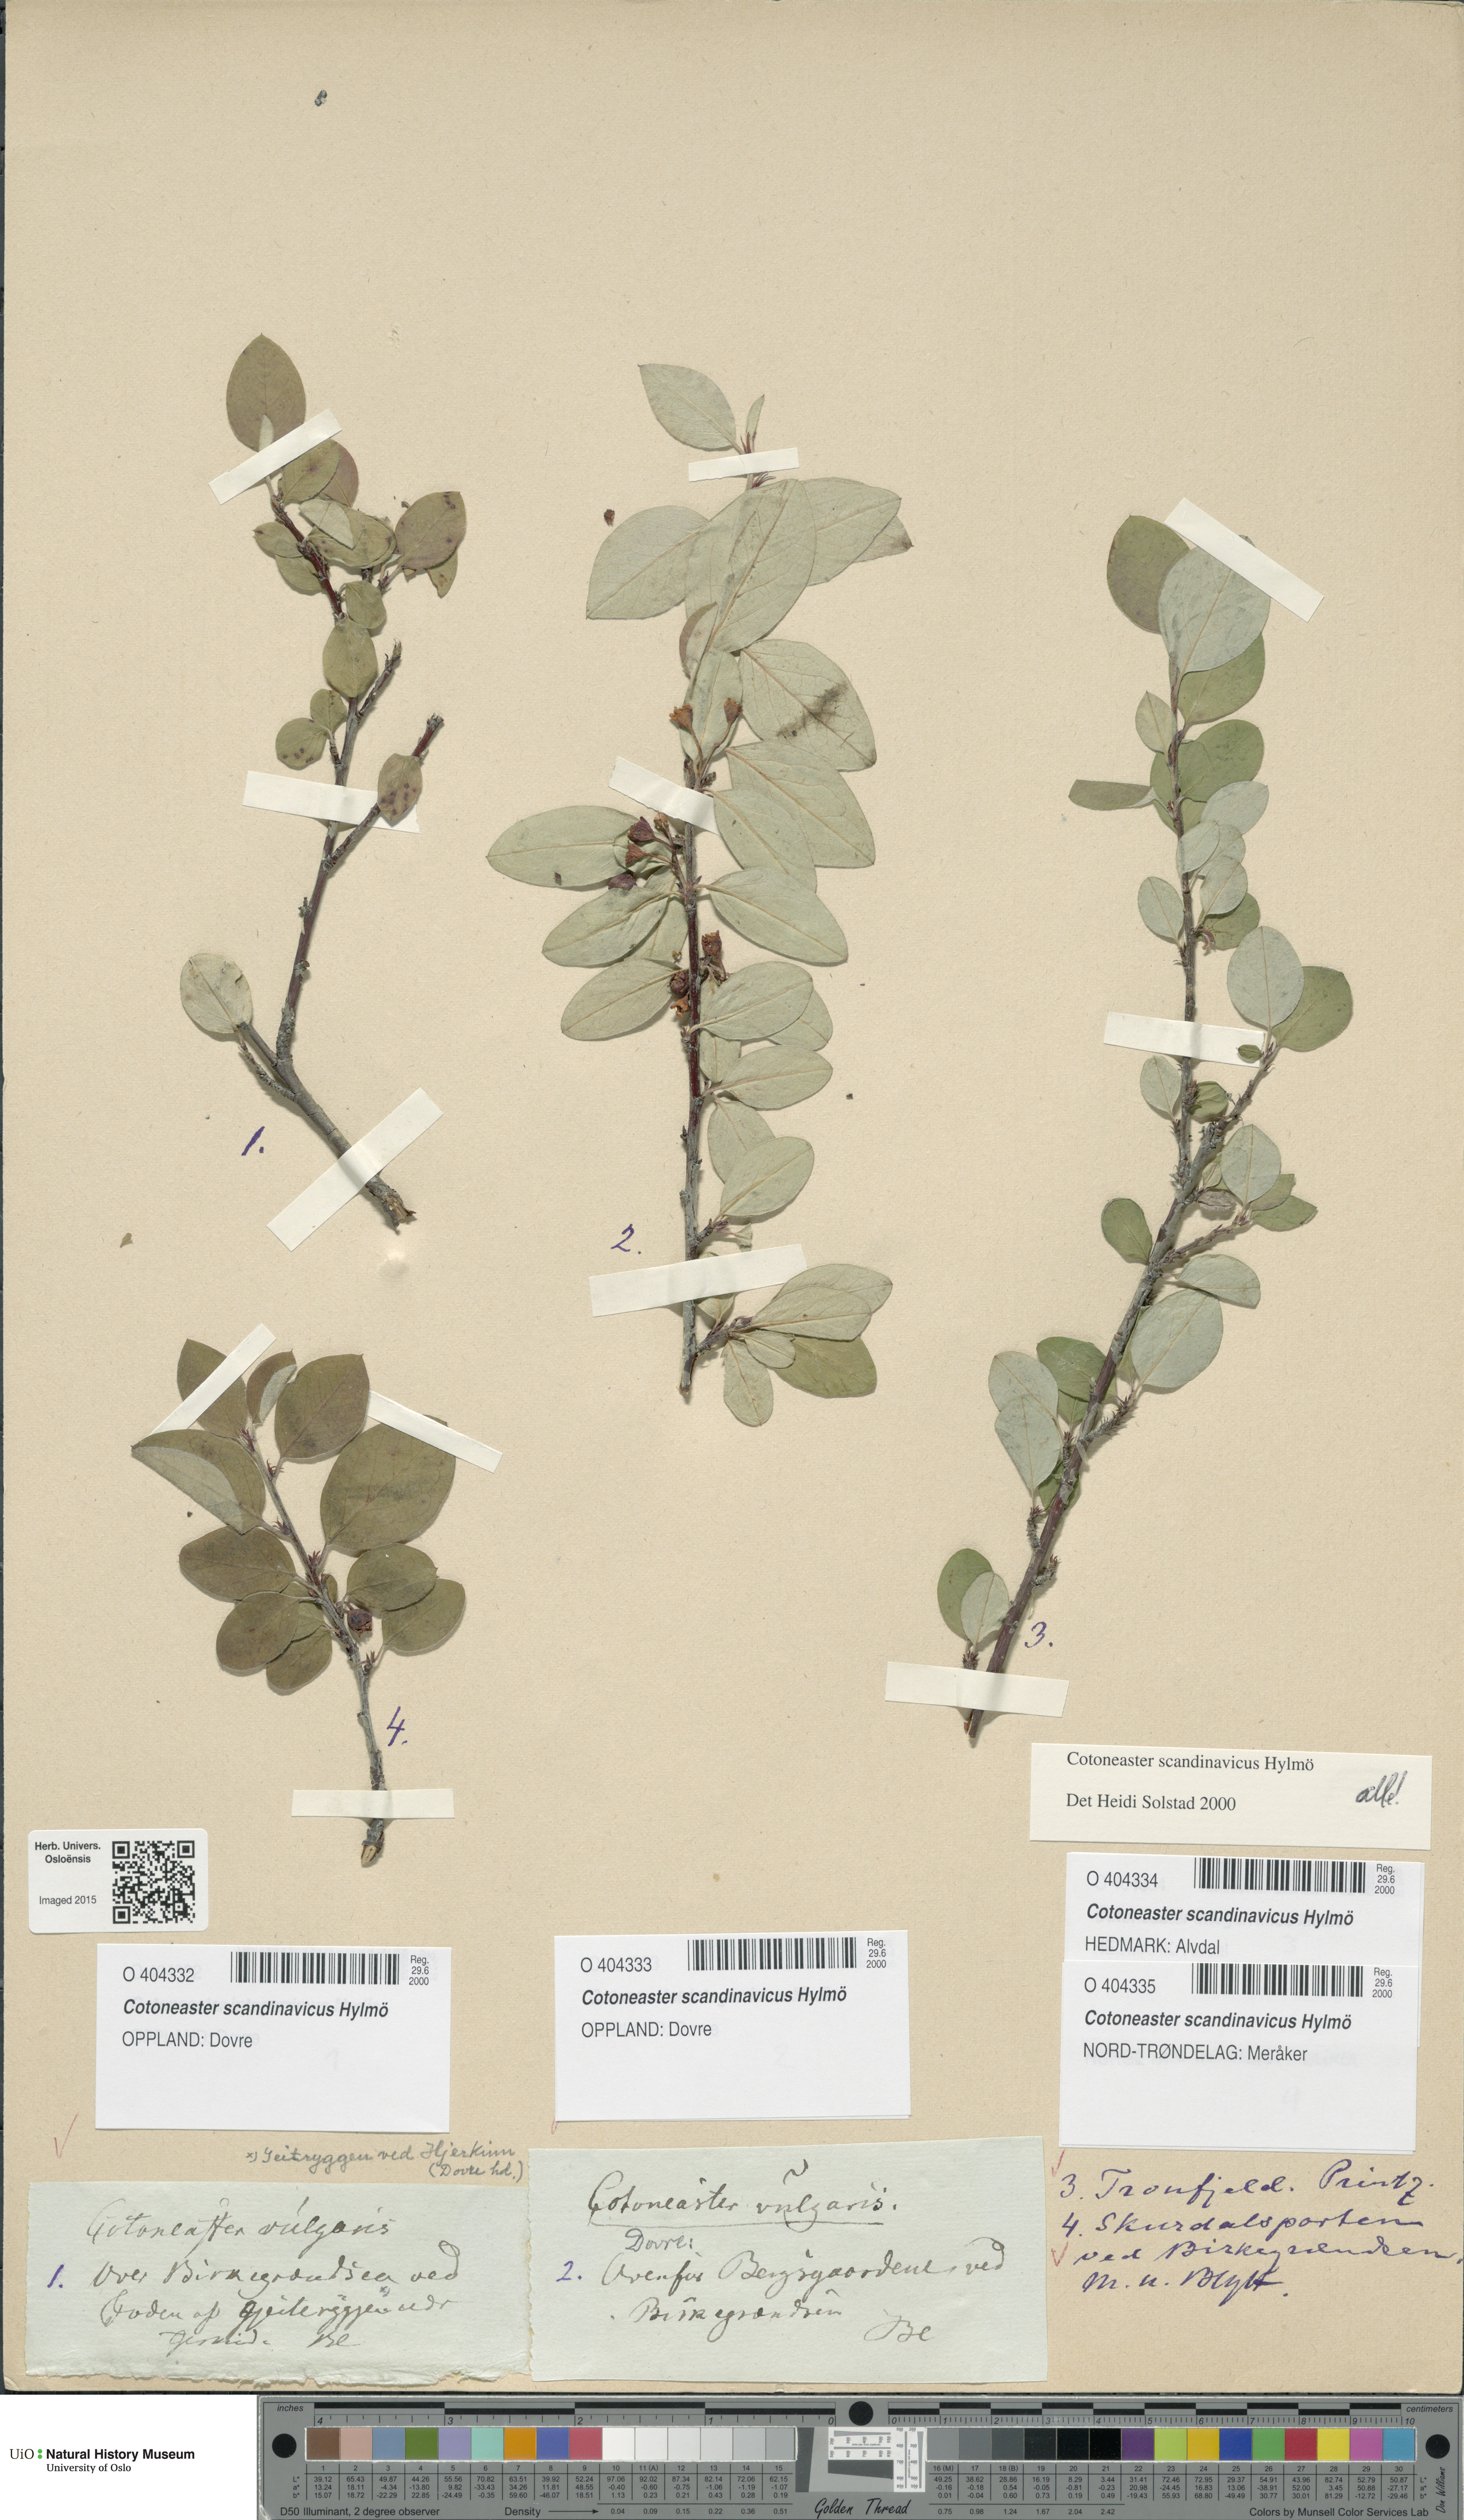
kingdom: Plantae
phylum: Tracheophyta
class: Magnoliopsida
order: Rosales
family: Rosaceae
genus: Cotoneaster
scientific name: Cotoneaster integerrimus
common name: Wild cotoneaster
